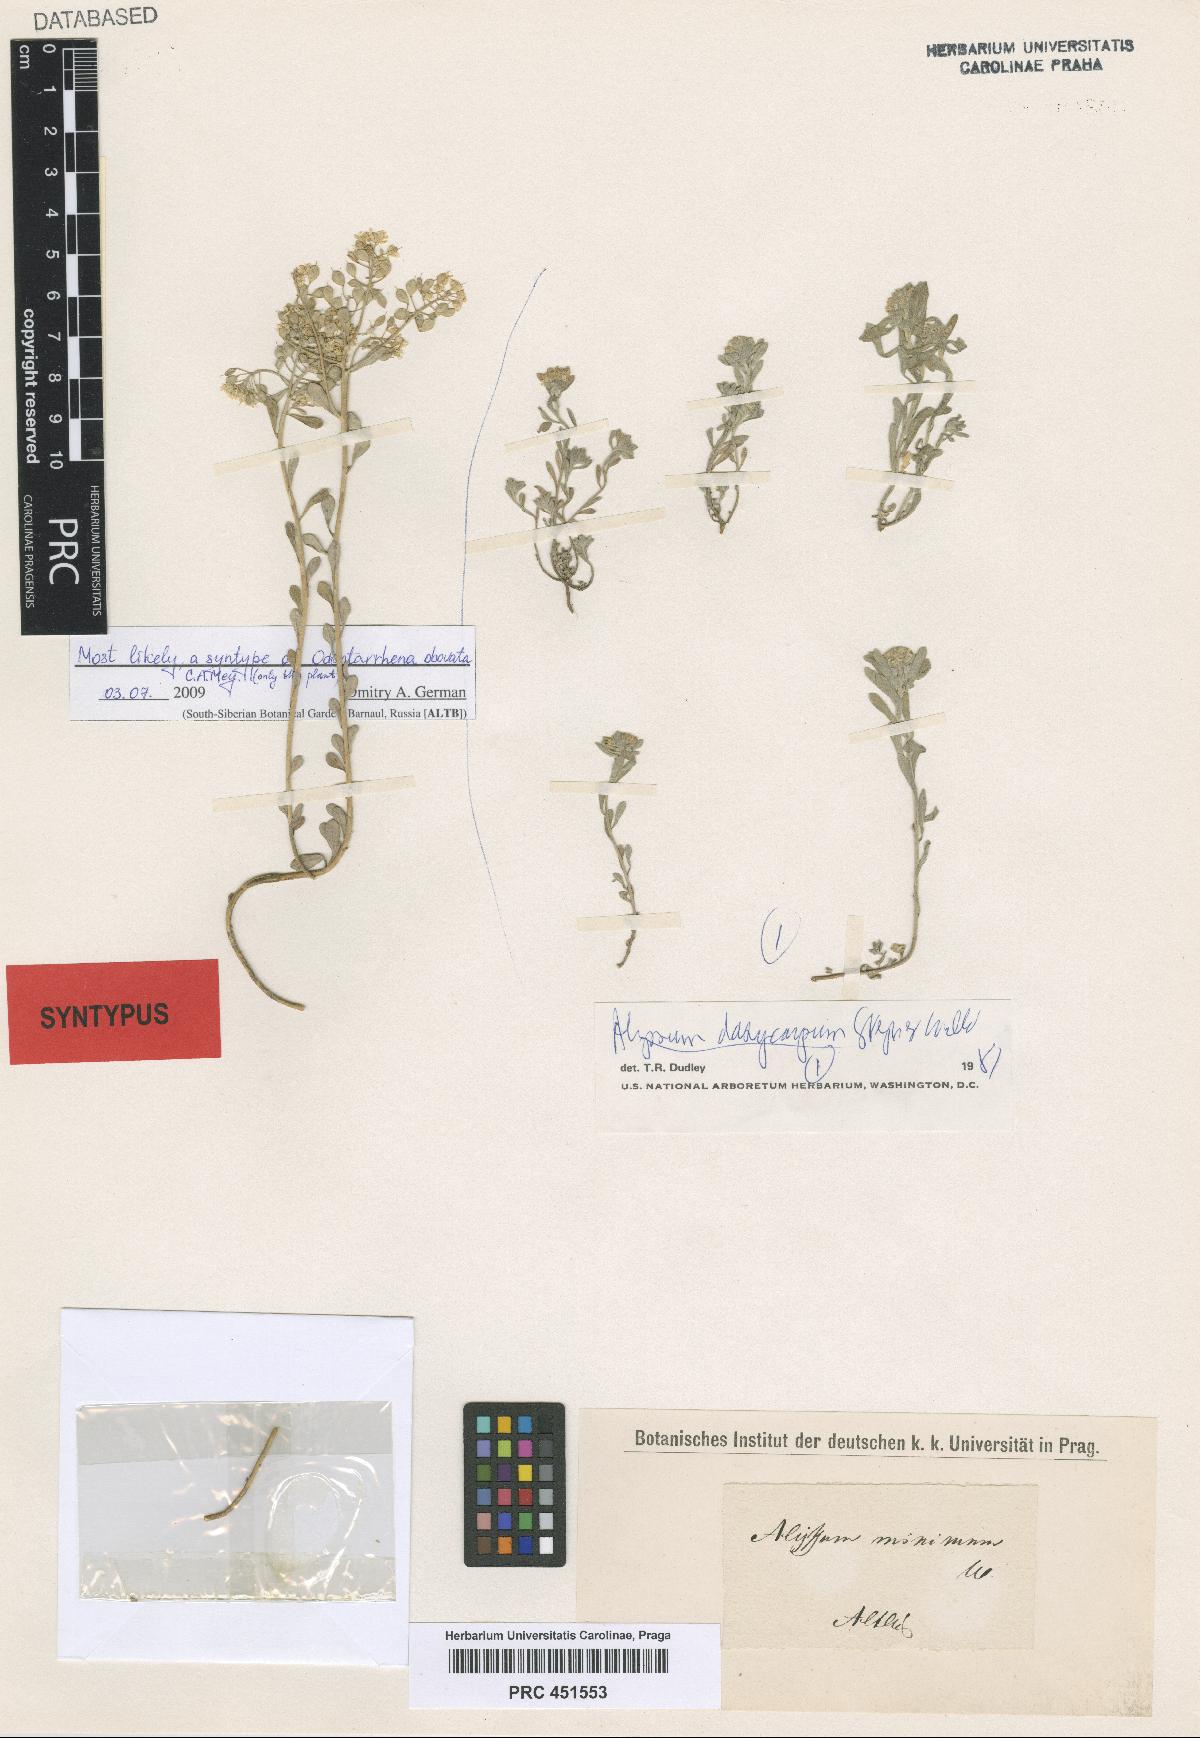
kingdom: Plantae
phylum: Tracheophyta
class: Magnoliopsida
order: Brassicales
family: Brassicaceae
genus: Odontarrhena
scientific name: Odontarrhena obovata
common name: American alyssum
